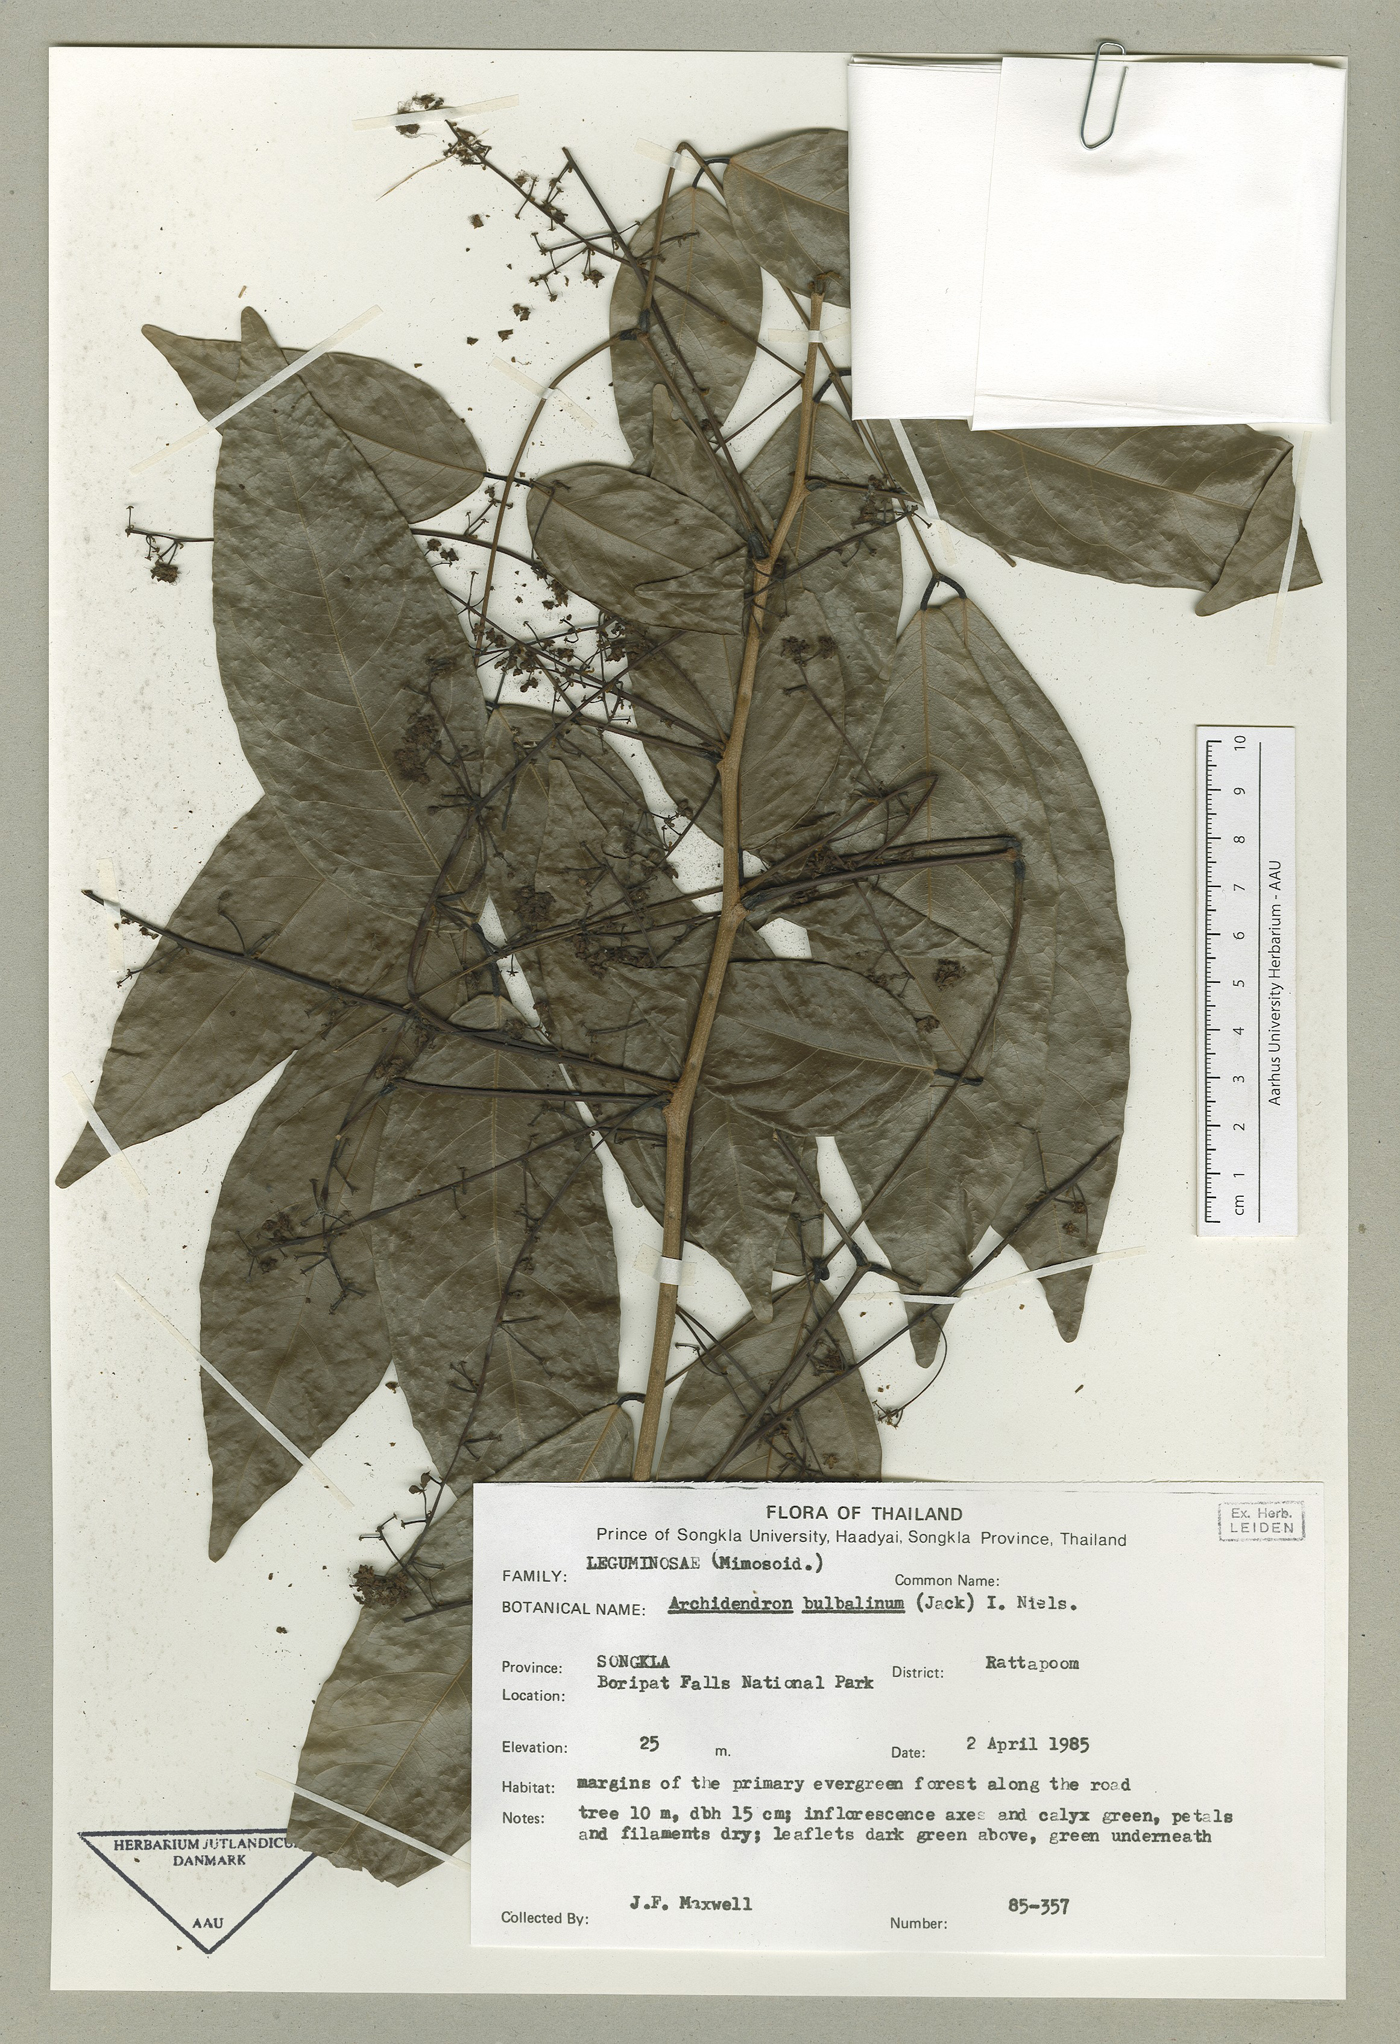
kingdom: Plantae
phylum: Tracheophyta
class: Magnoliopsida
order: Fabales
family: Fabaceae
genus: Archidendron
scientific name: Archidendron bubalinum
